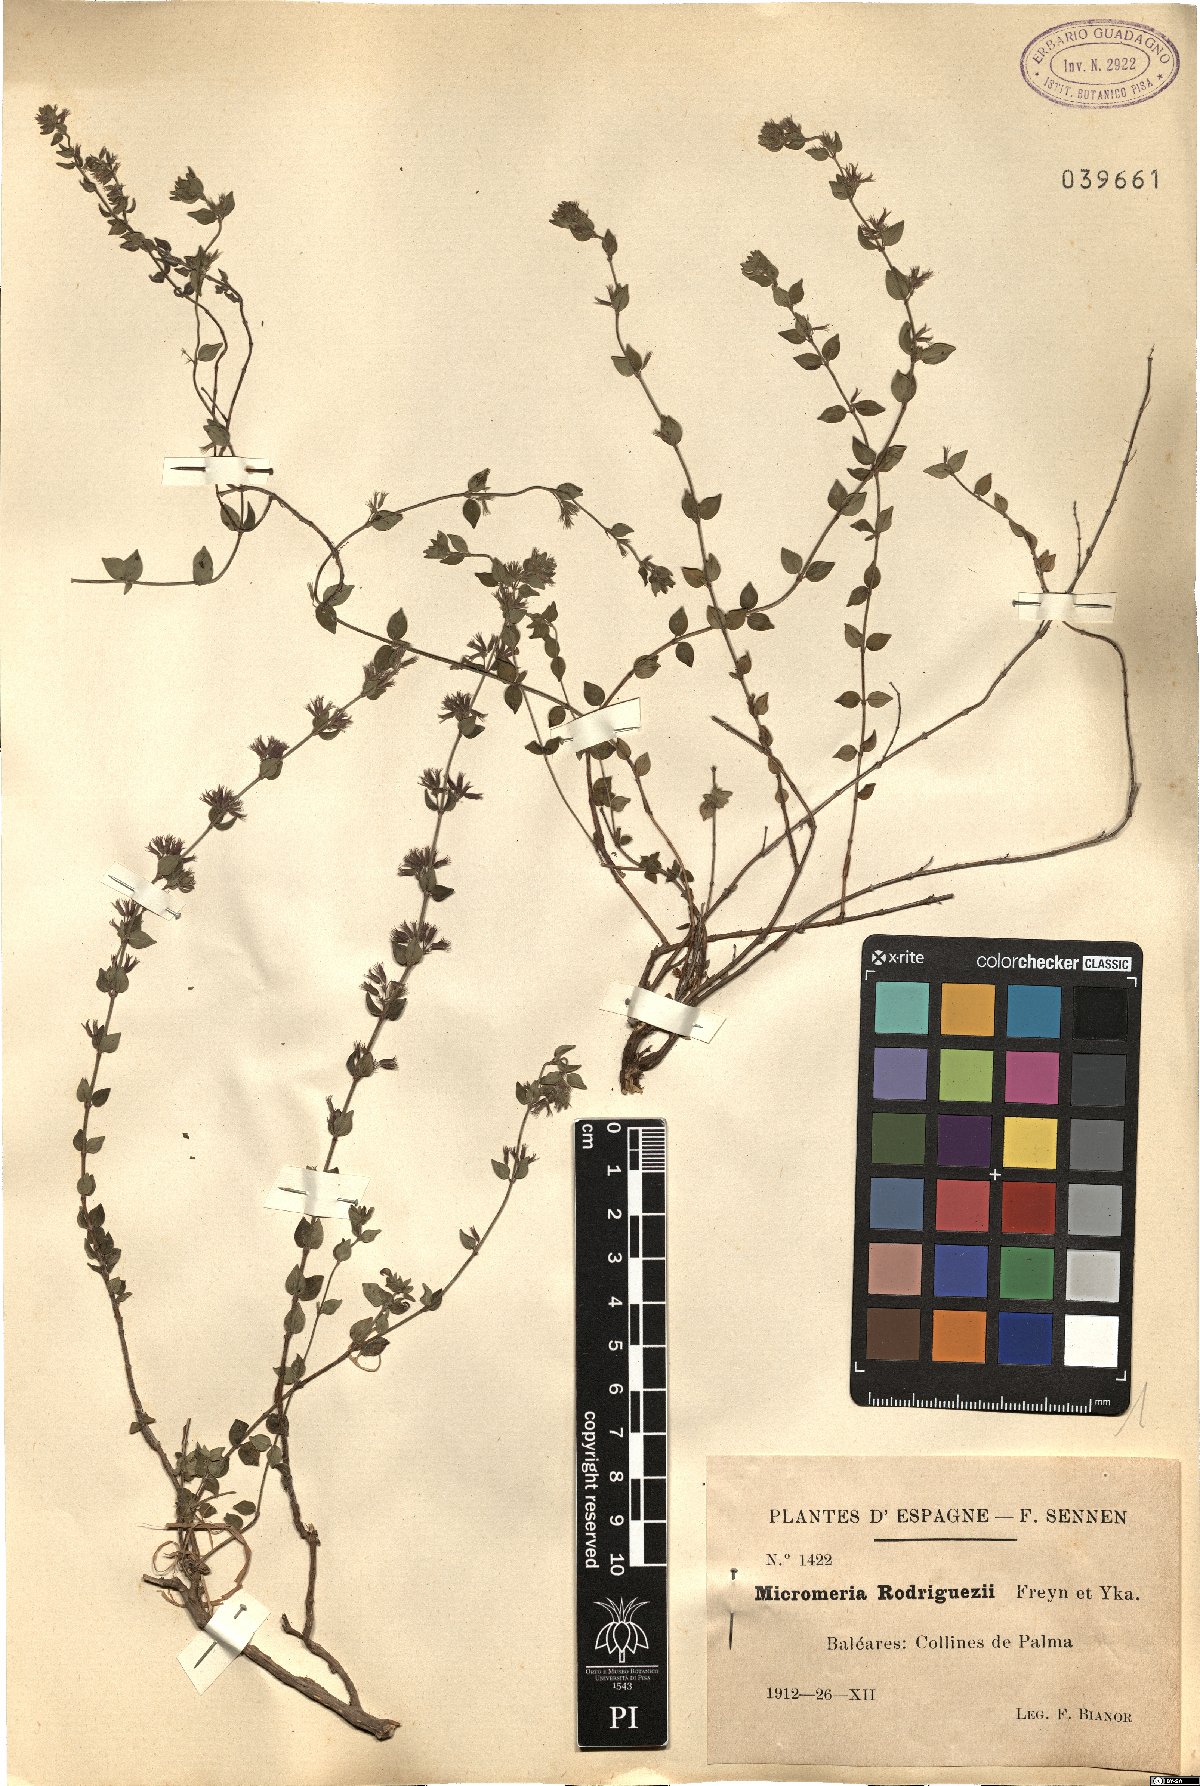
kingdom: Plantae
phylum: Tracheophyta
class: Magnoliopsida
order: Lamiales
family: Lamiaceae
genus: Micromeria
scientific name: Micromeria microphylla
